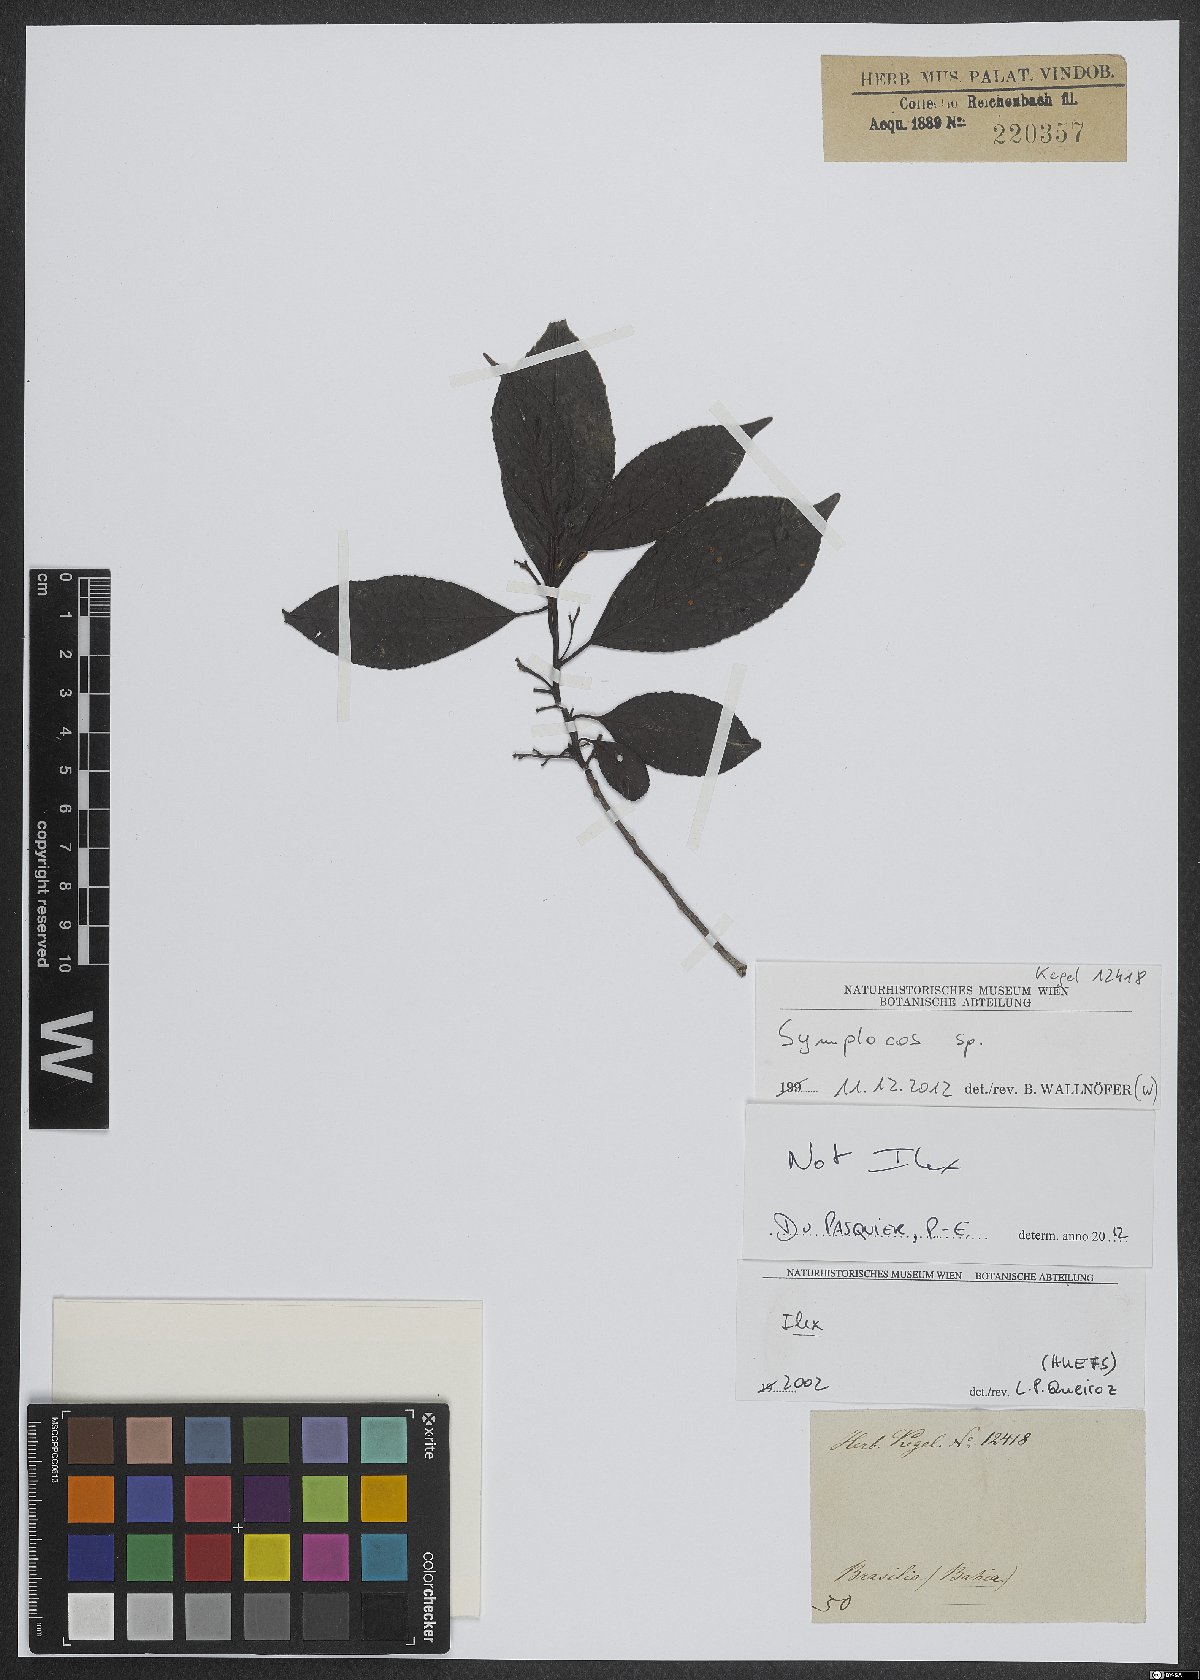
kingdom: Plantae
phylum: Tracheophyta
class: Magnoliopsida
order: Ericales
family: Symplocaceae
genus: Symplocos
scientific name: Symplocos
